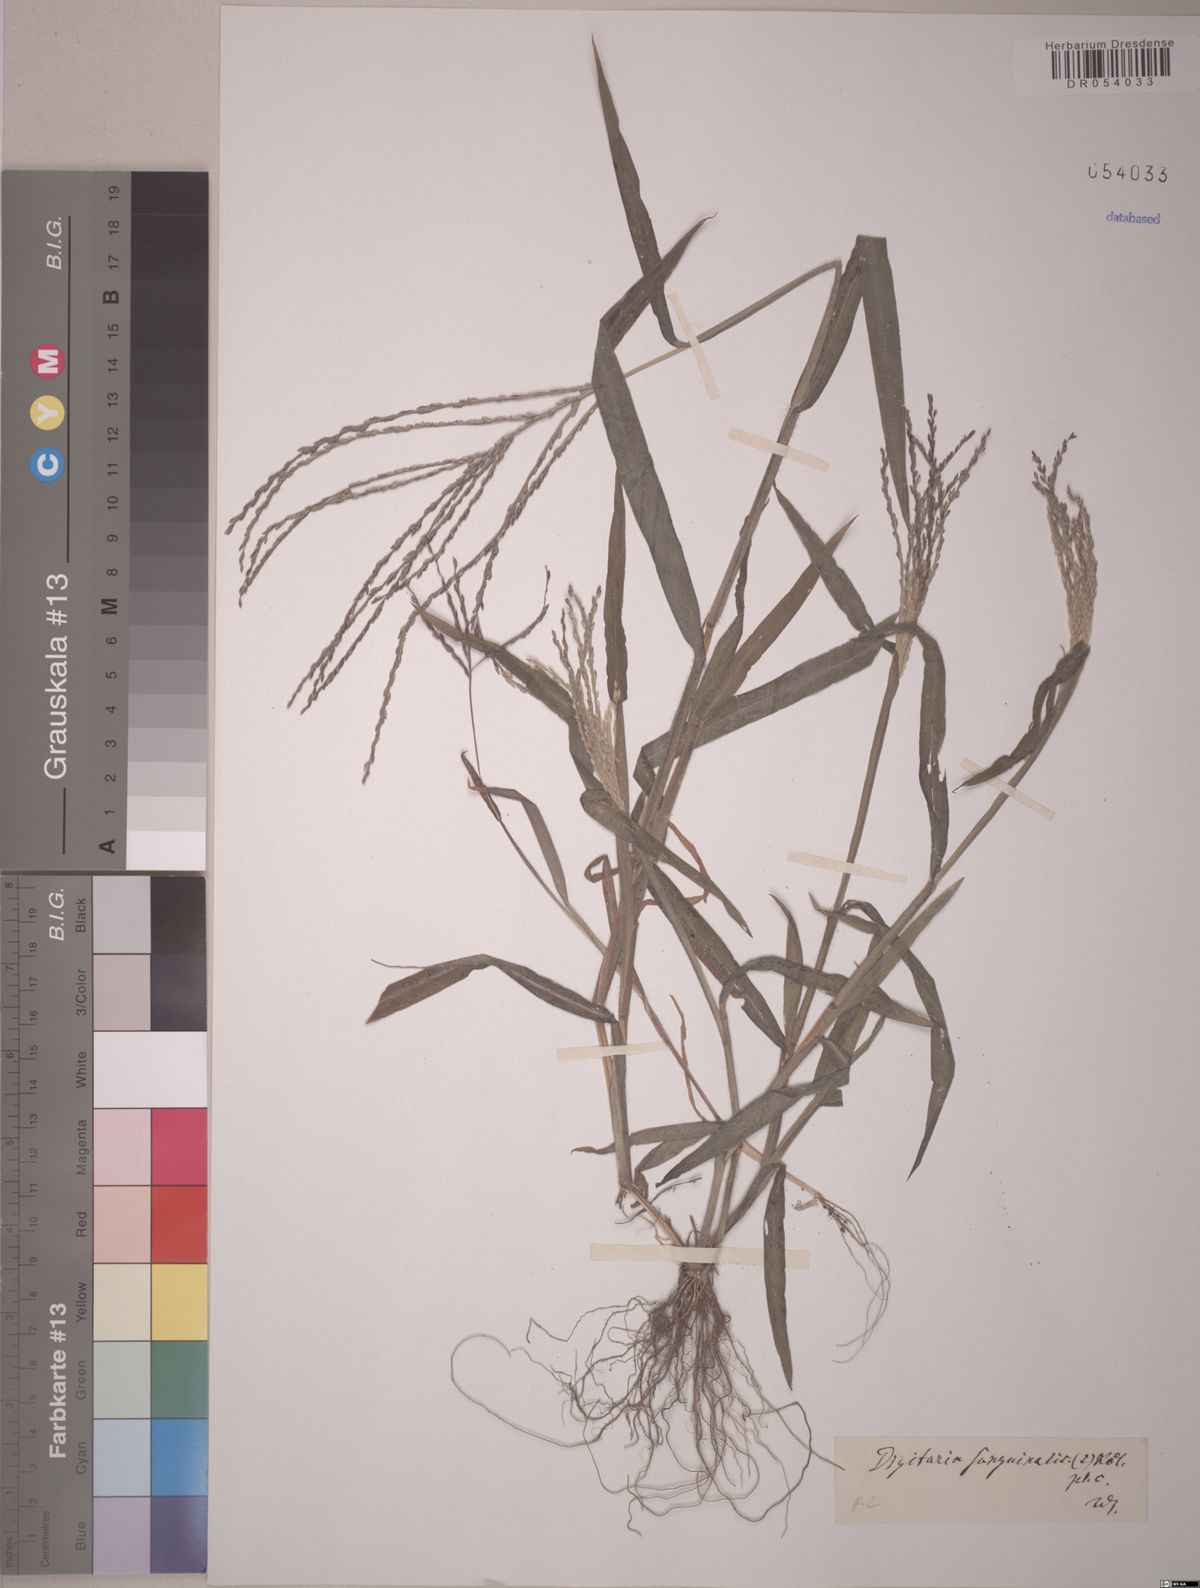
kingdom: Plantae
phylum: Tracheophyta
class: Liliopsida
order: Poales
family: Poaceae
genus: Digitaria
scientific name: Digitaria sanguinalis
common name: Hairy crabgrass
